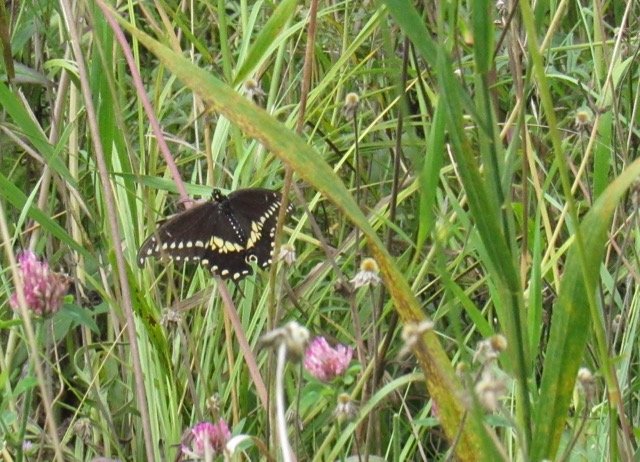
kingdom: Animalia
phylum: Arthropoda
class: Insecta
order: Lepidoptera
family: Papilionidae
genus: Papilio
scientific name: Papilio polyxenes
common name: Black Swallowtail
